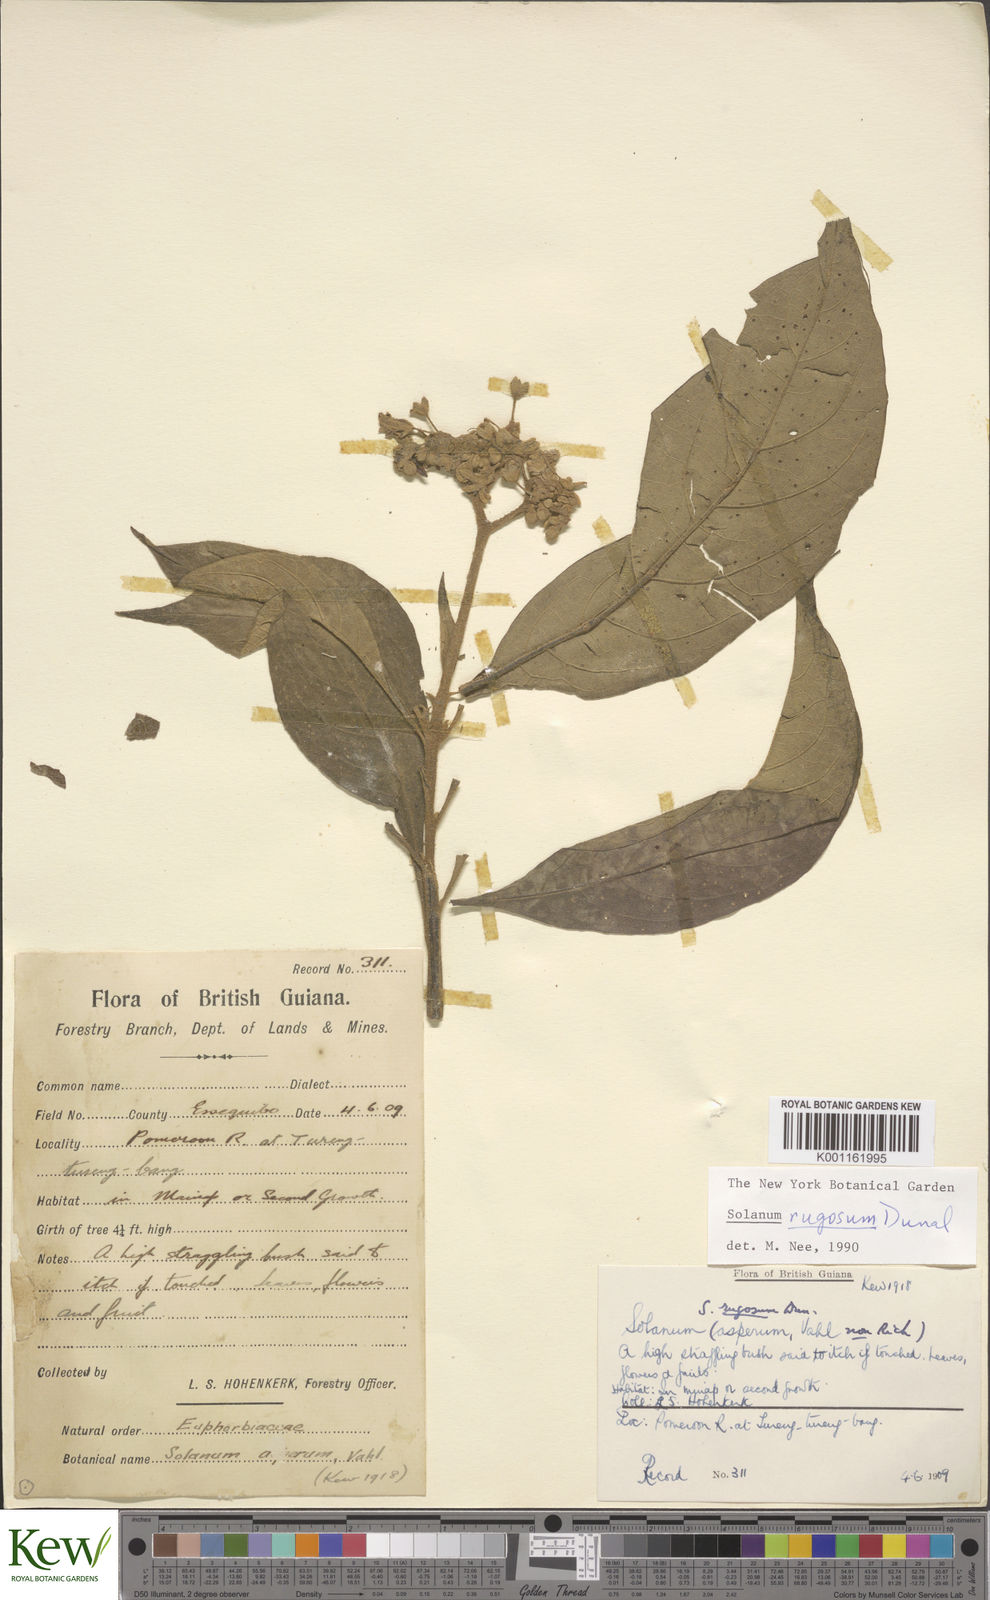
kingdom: Plantae
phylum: Tracheophyta
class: Magnoliopsida
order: Solanales
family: Solanaceae
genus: Solanum
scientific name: Solanum rugosum
